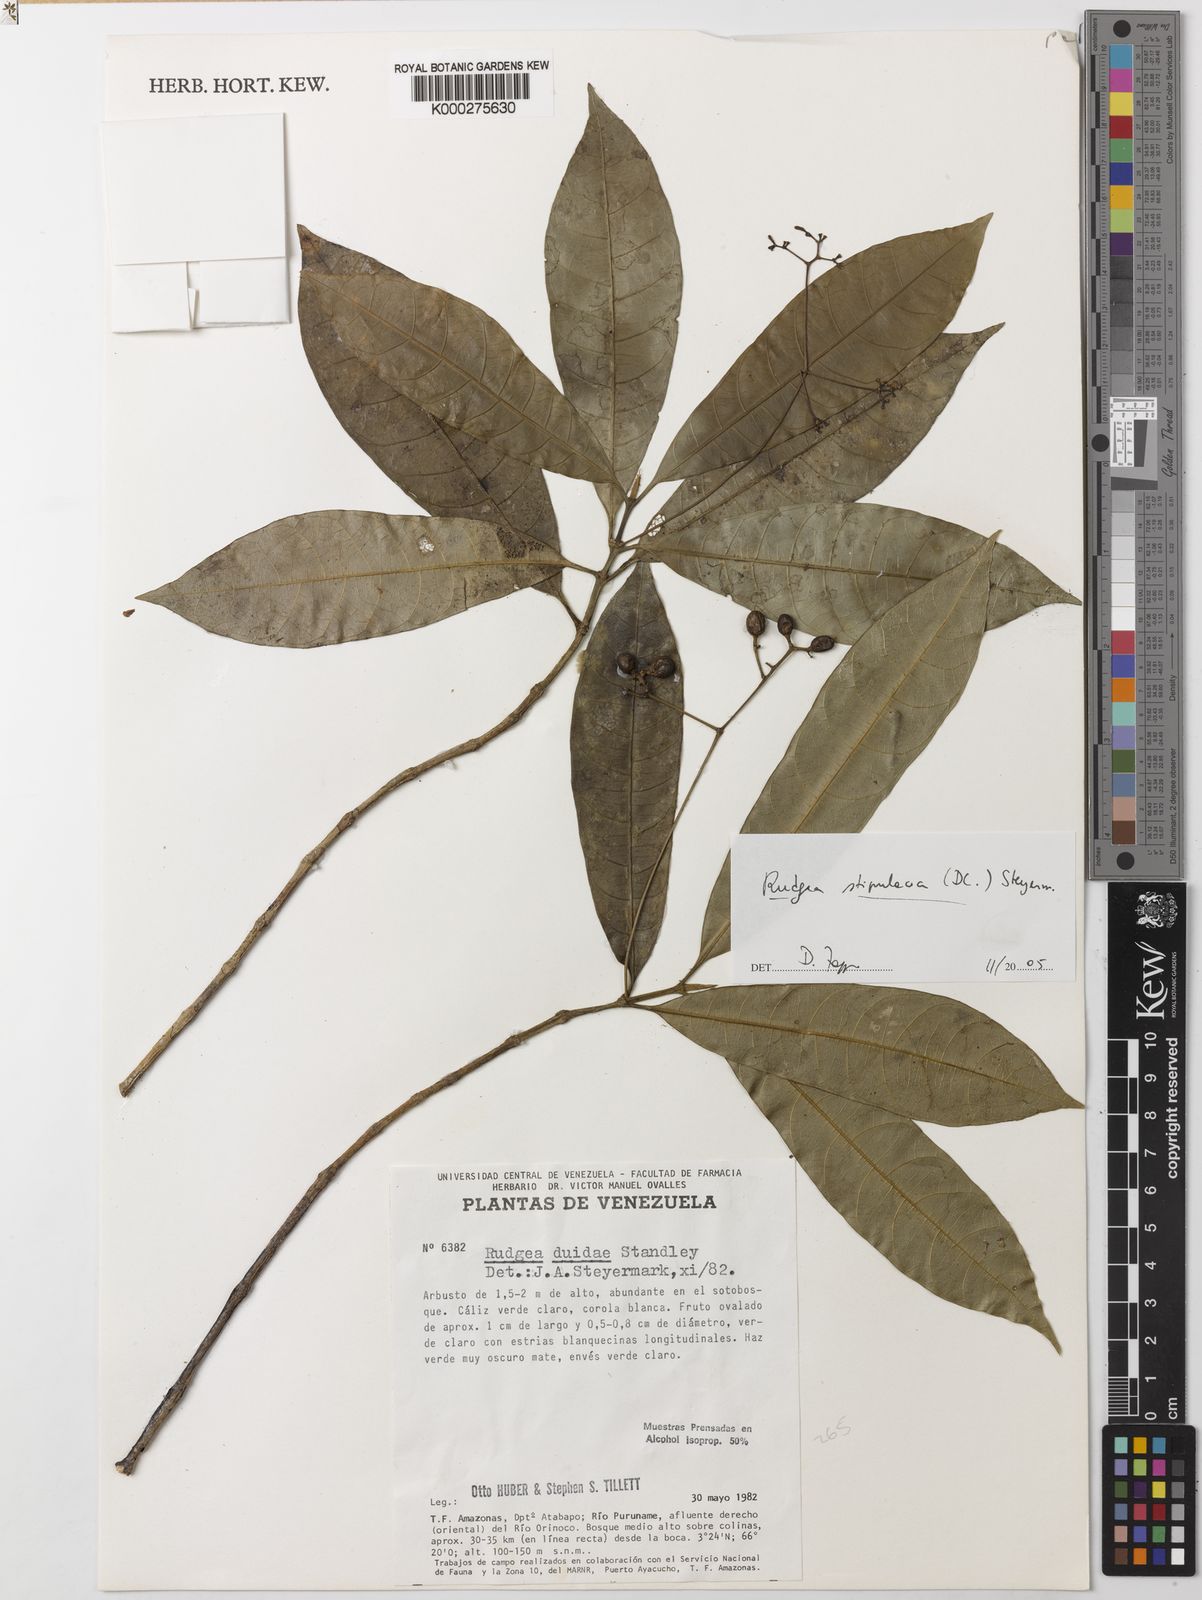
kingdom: Plantae
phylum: Tracheophyta
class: Magnoliopsida
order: Gentianales
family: Rubiaceae
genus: Rudgea
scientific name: Rudgea stipulacea
